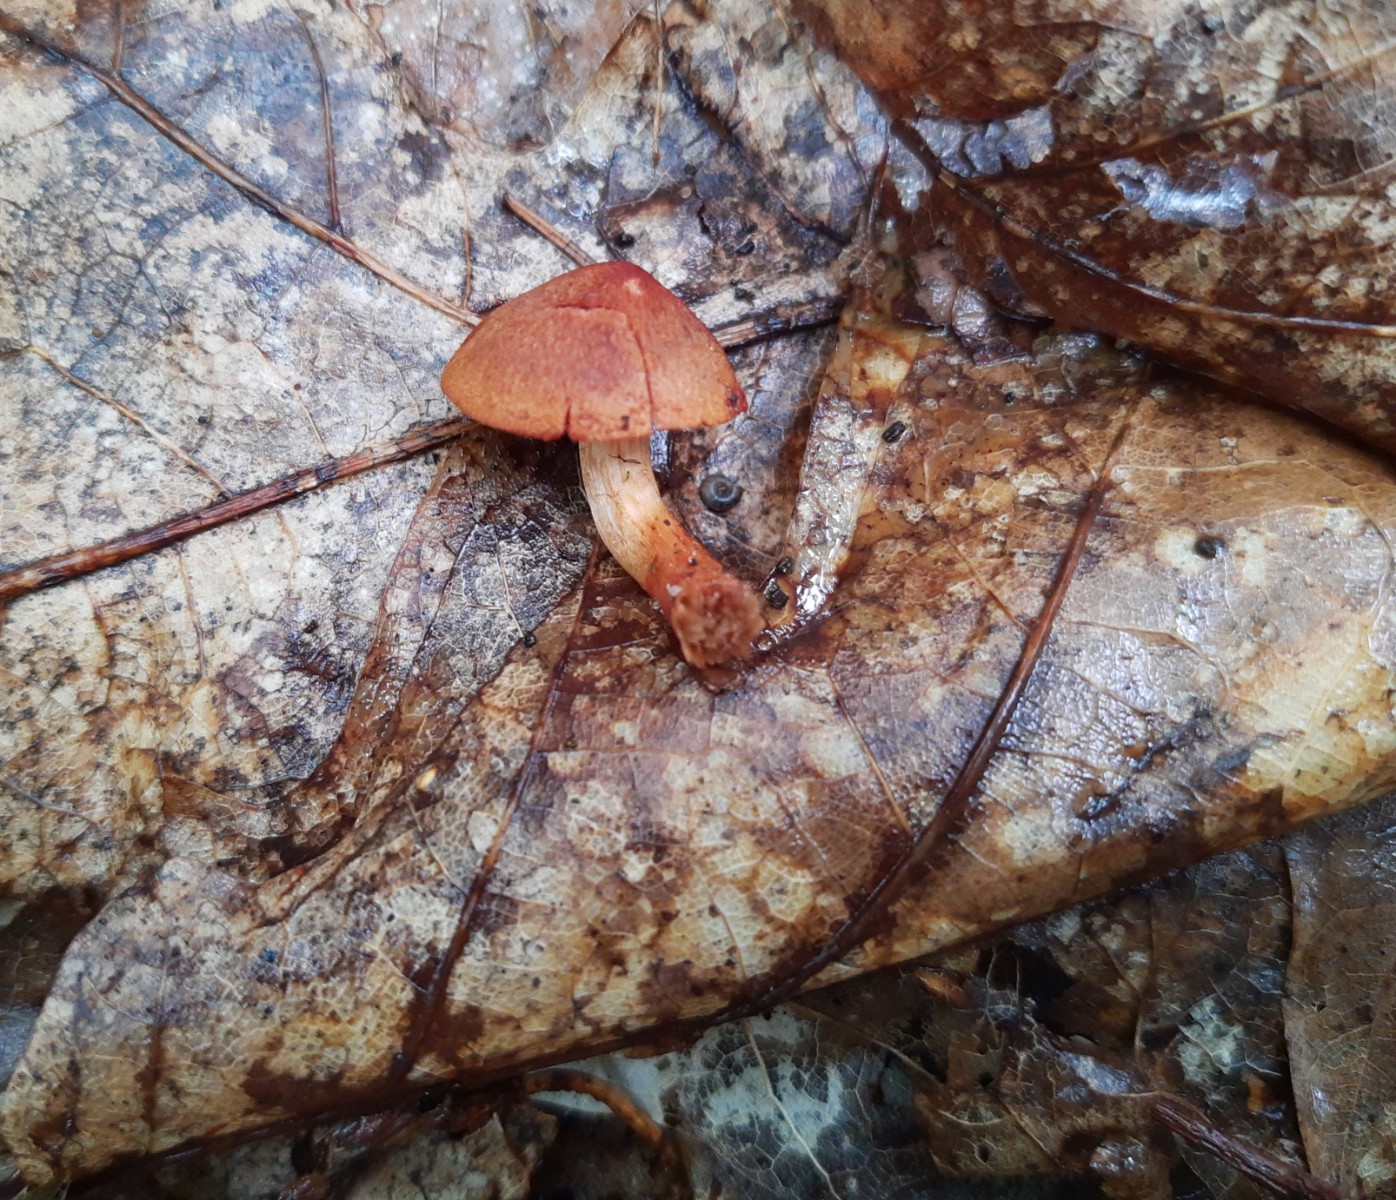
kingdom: Fungi
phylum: Basidiomycota
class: Agaricomycetes
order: Agaricales
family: Cortinariaceae
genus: Cortinarius
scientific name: Cortinarius
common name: cinnoberbladet slørhat
